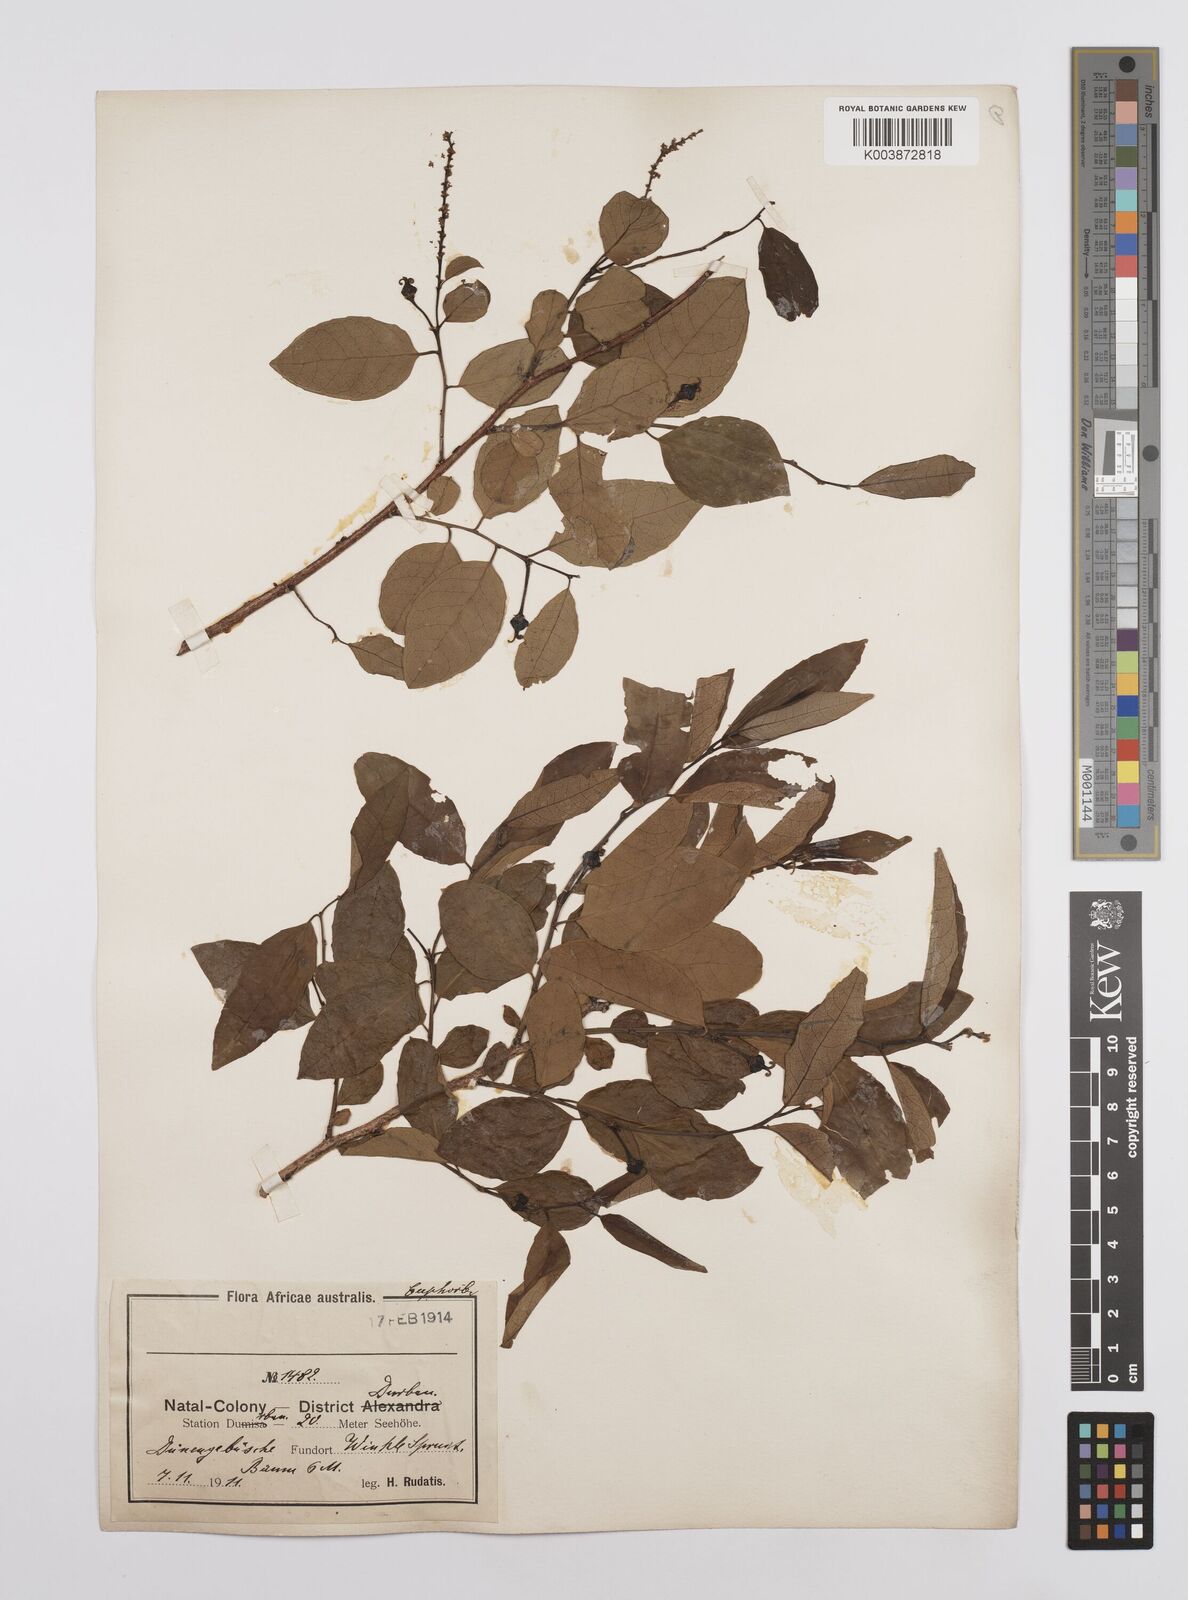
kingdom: Plantae
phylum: Tracheophyta
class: Magnoliopsida
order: Malpighiales
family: Euphorbiaceae
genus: Sclerocroton
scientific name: Sclerocroton integerrimus
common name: Duiker berry
